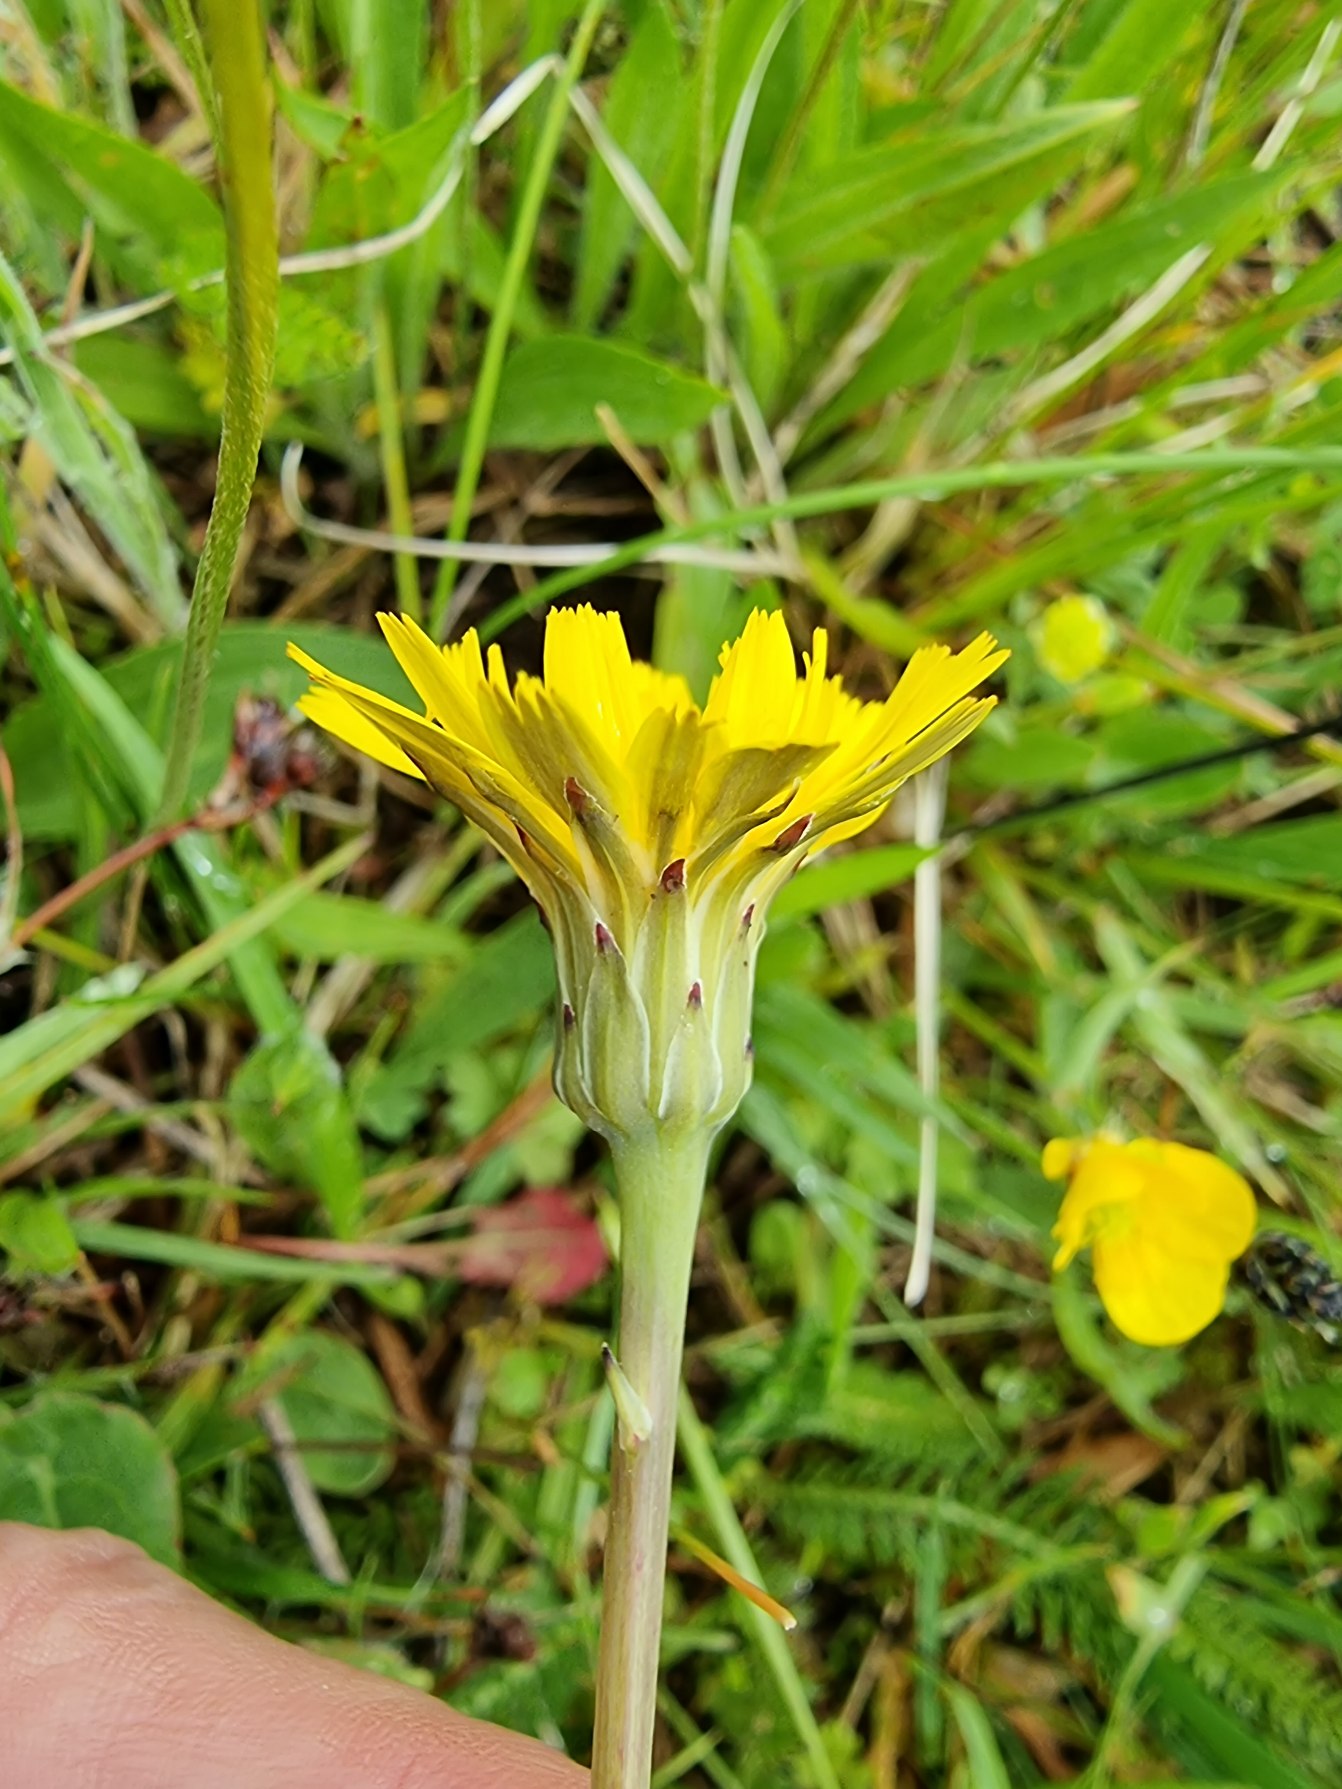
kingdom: Plantae
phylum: Tracheophyta
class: Magnoliopsida
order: Asterales
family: Asteraceae
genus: Hypochaeris
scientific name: Hypochaeris radicata
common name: Almindelig kongepen
